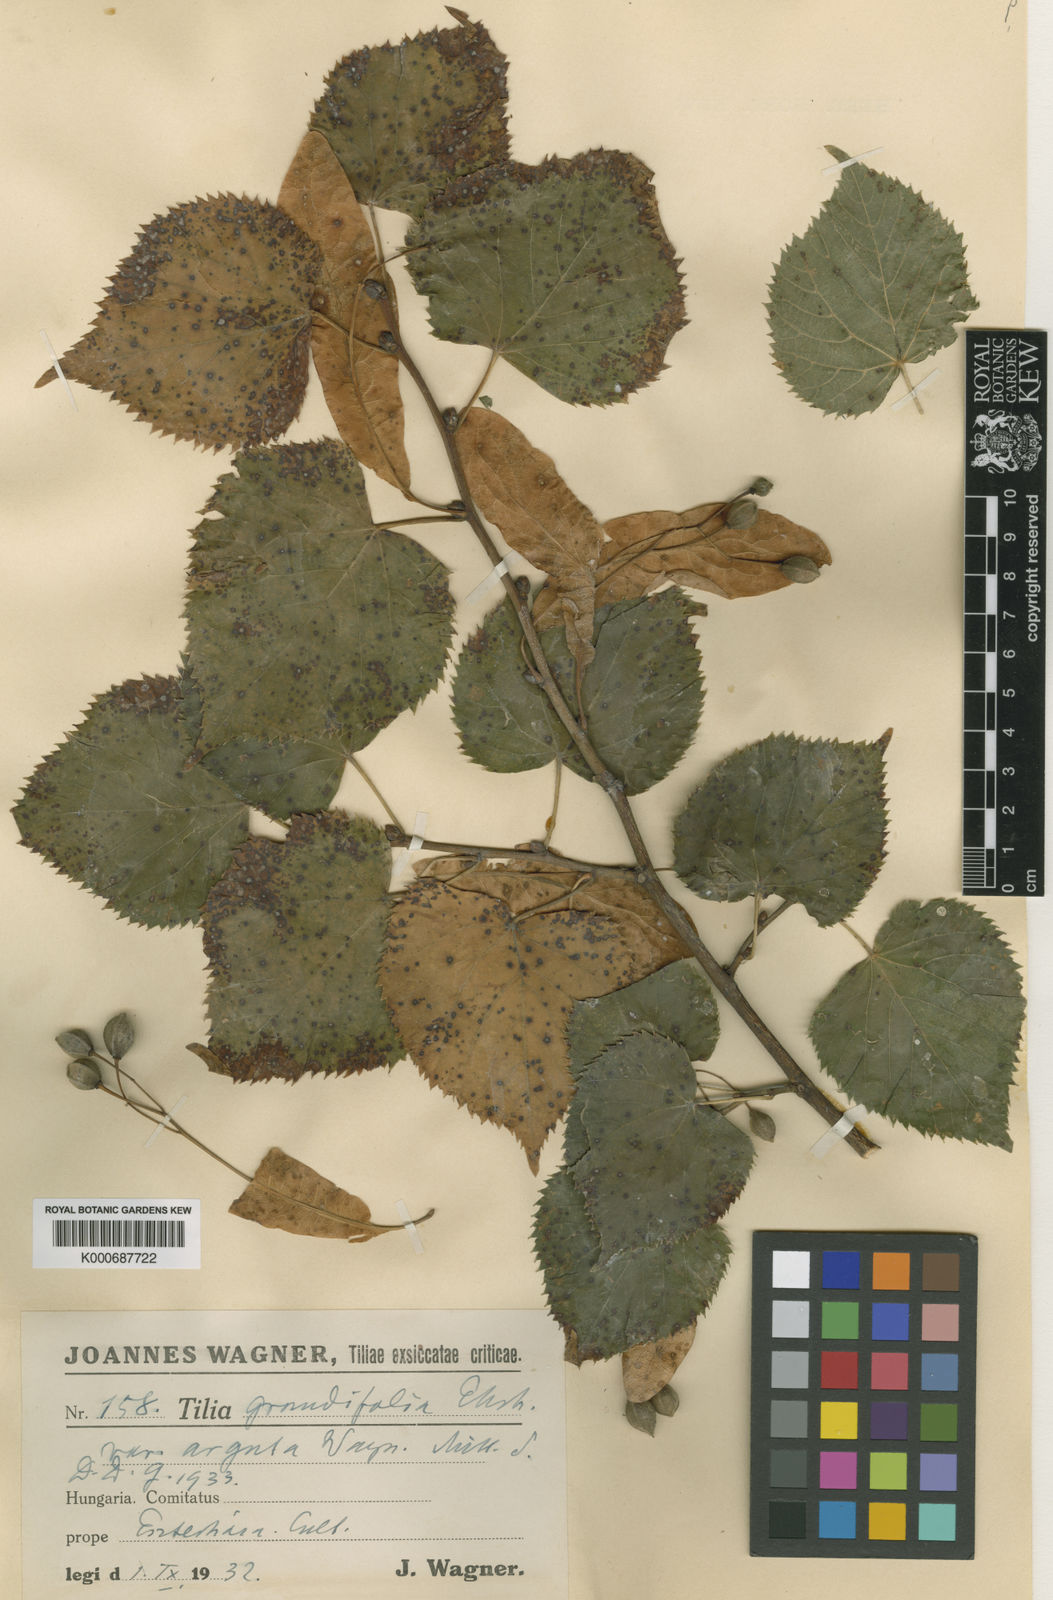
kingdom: Plantae
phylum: Tracheophyta
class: Magnoliopsida
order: Malvales
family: Malvaceae
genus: Tilia
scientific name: Tilia platyphyllos
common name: Large-leaved lime
